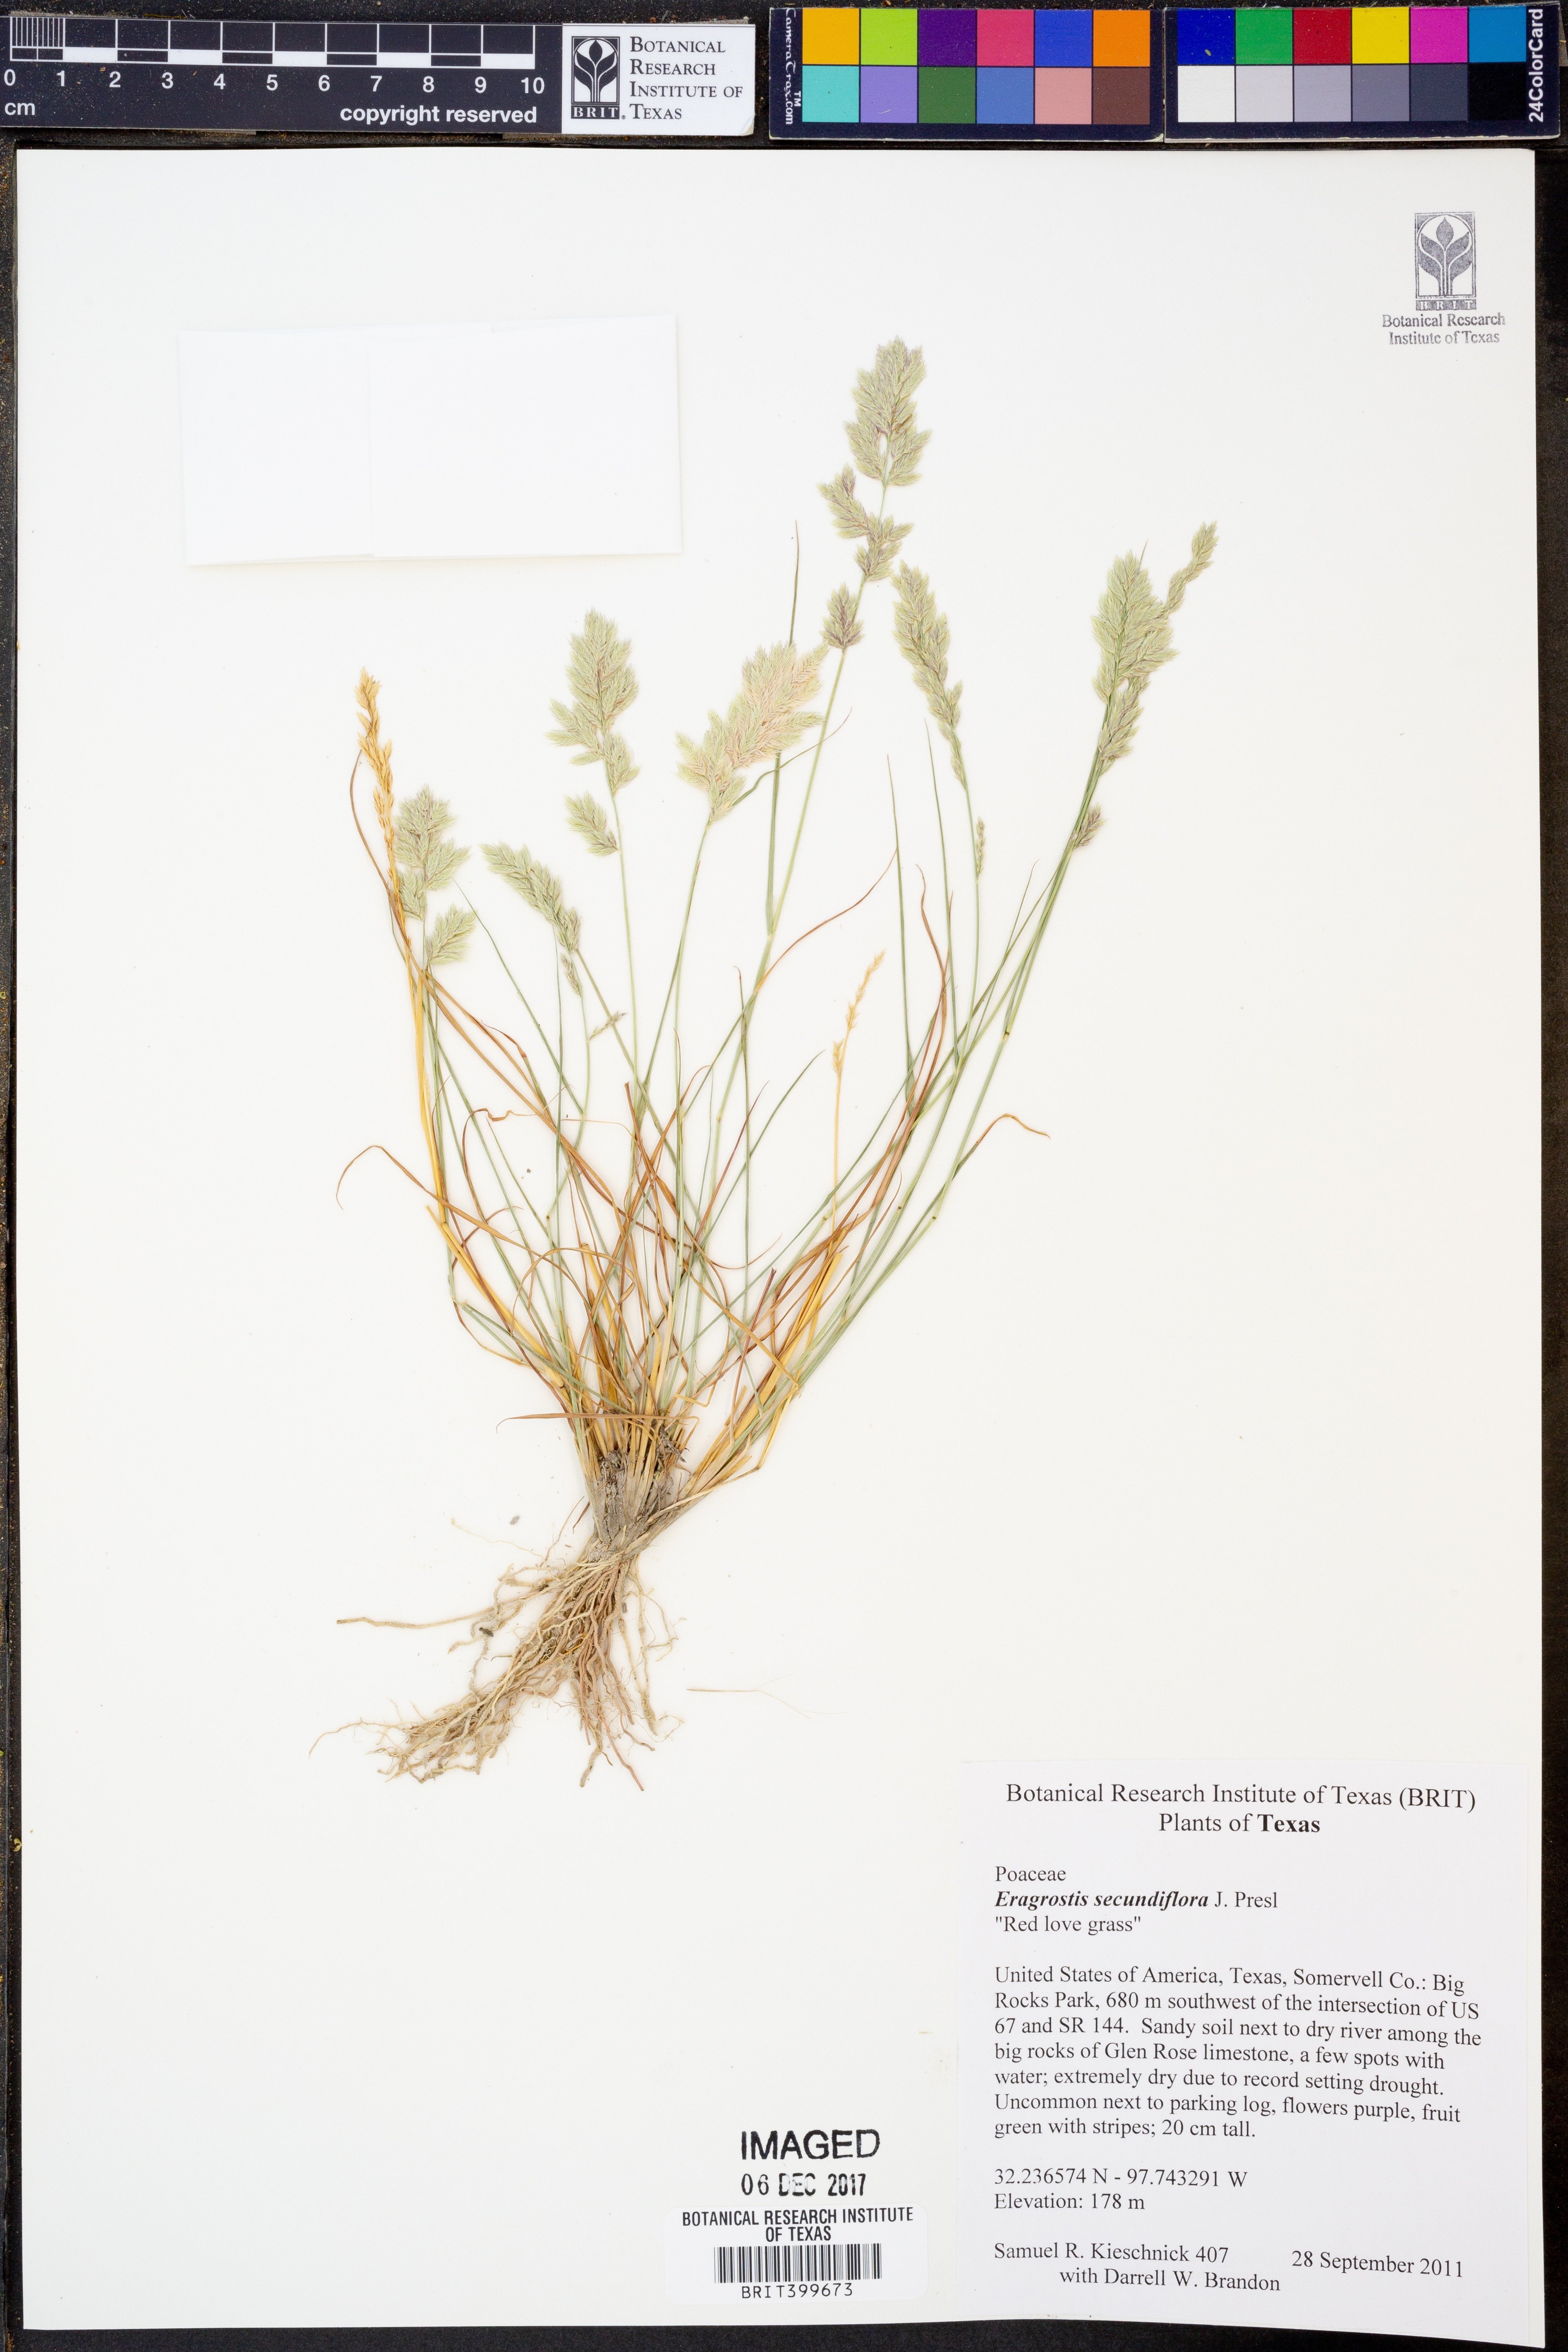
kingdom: Plantae
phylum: Tracheophyta
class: Liliopsida
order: Poales
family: Poaceae
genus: Eragrostis
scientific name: Eragrostis secundiflora
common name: Red love grass
